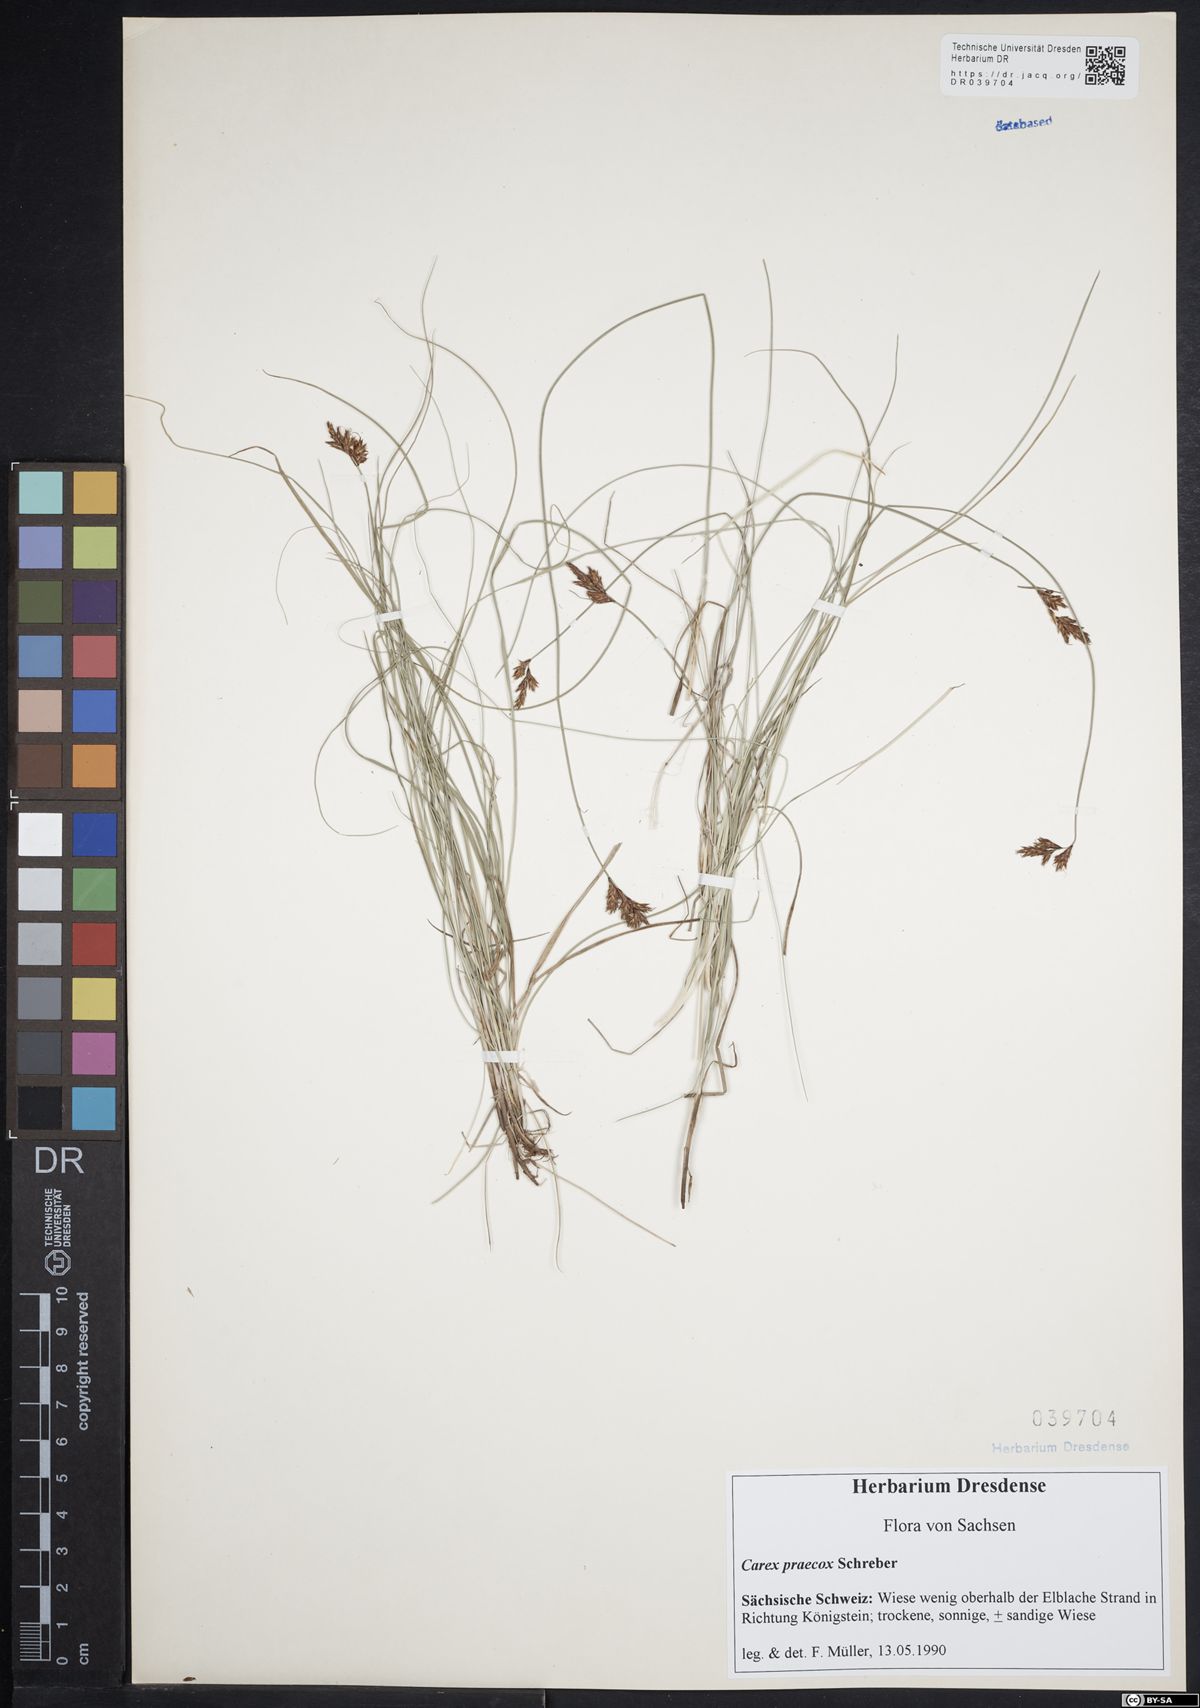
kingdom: Plantae
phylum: Tracheophyta
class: Liliopsida
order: Poales
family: Cyperaceae
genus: Carex
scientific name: Carex praecox
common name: Early sedge
